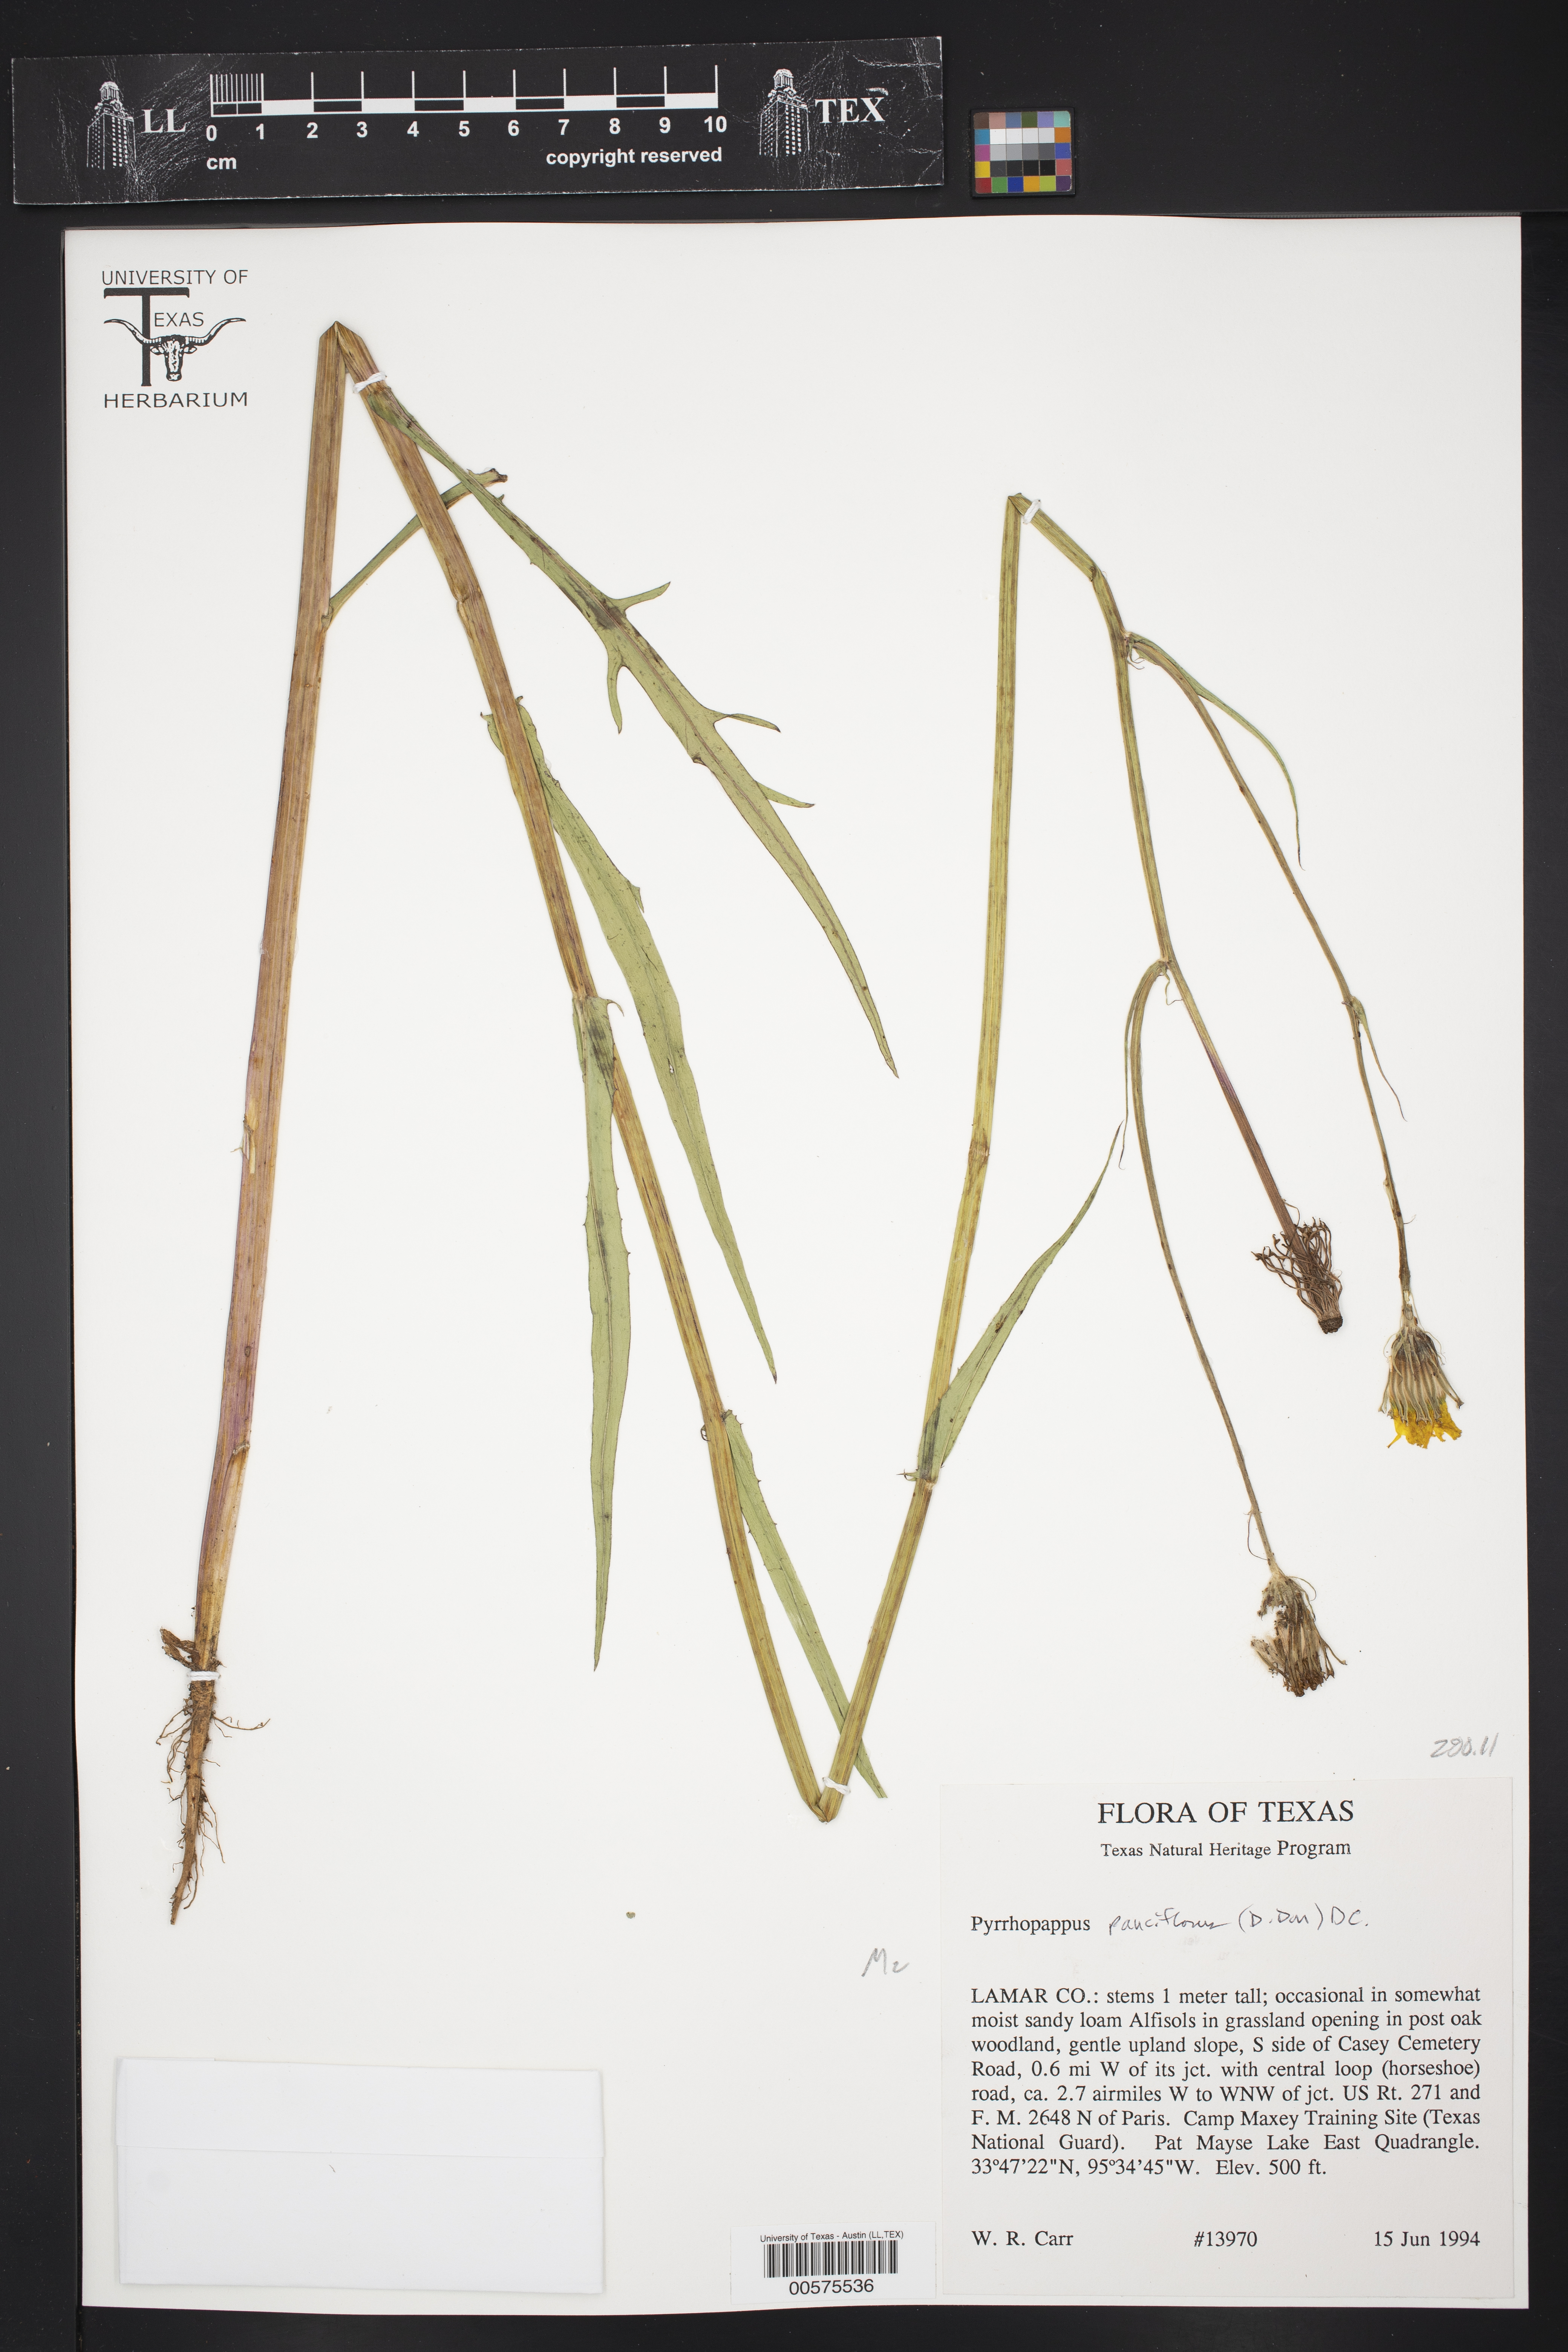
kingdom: Plantae
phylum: Tracheophyta
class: Magnoliopsida
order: Asterales
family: Asteraceae
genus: Pyrrhopappus
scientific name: Pyrrhopappus pauciflorus
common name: Texas false dandelion
